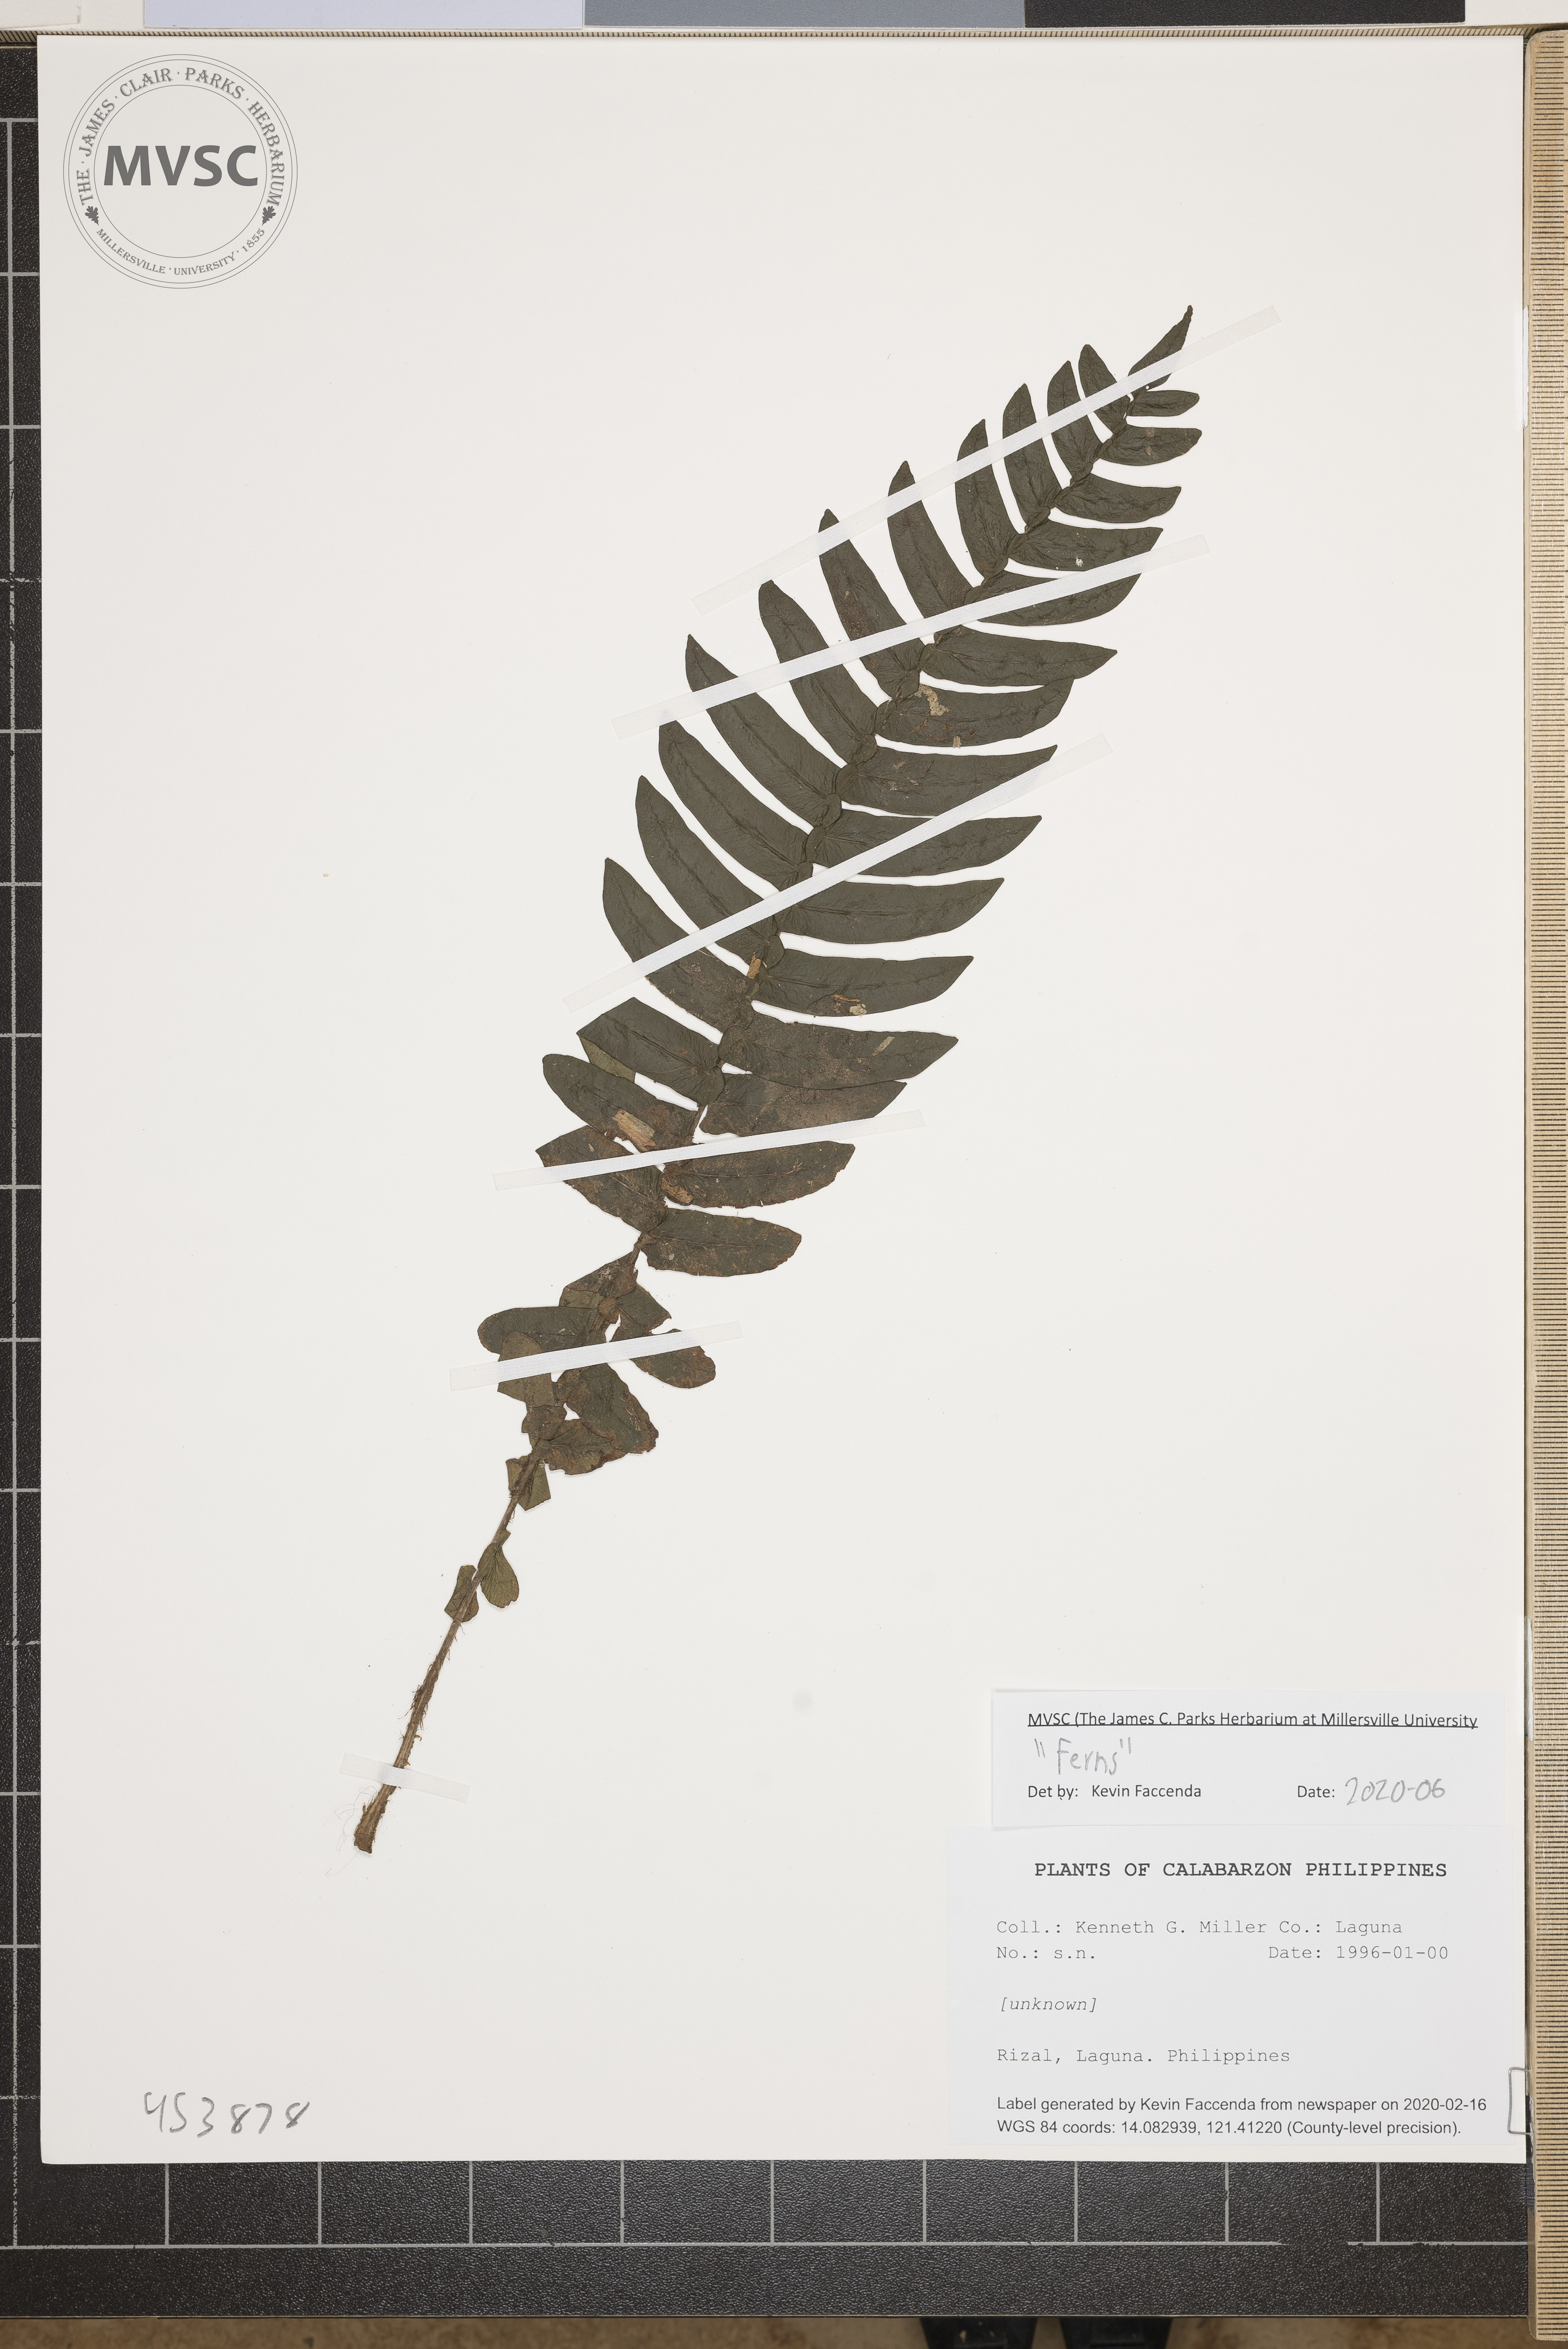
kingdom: Plantae
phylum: Tracheophyta
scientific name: Tracheophyta
